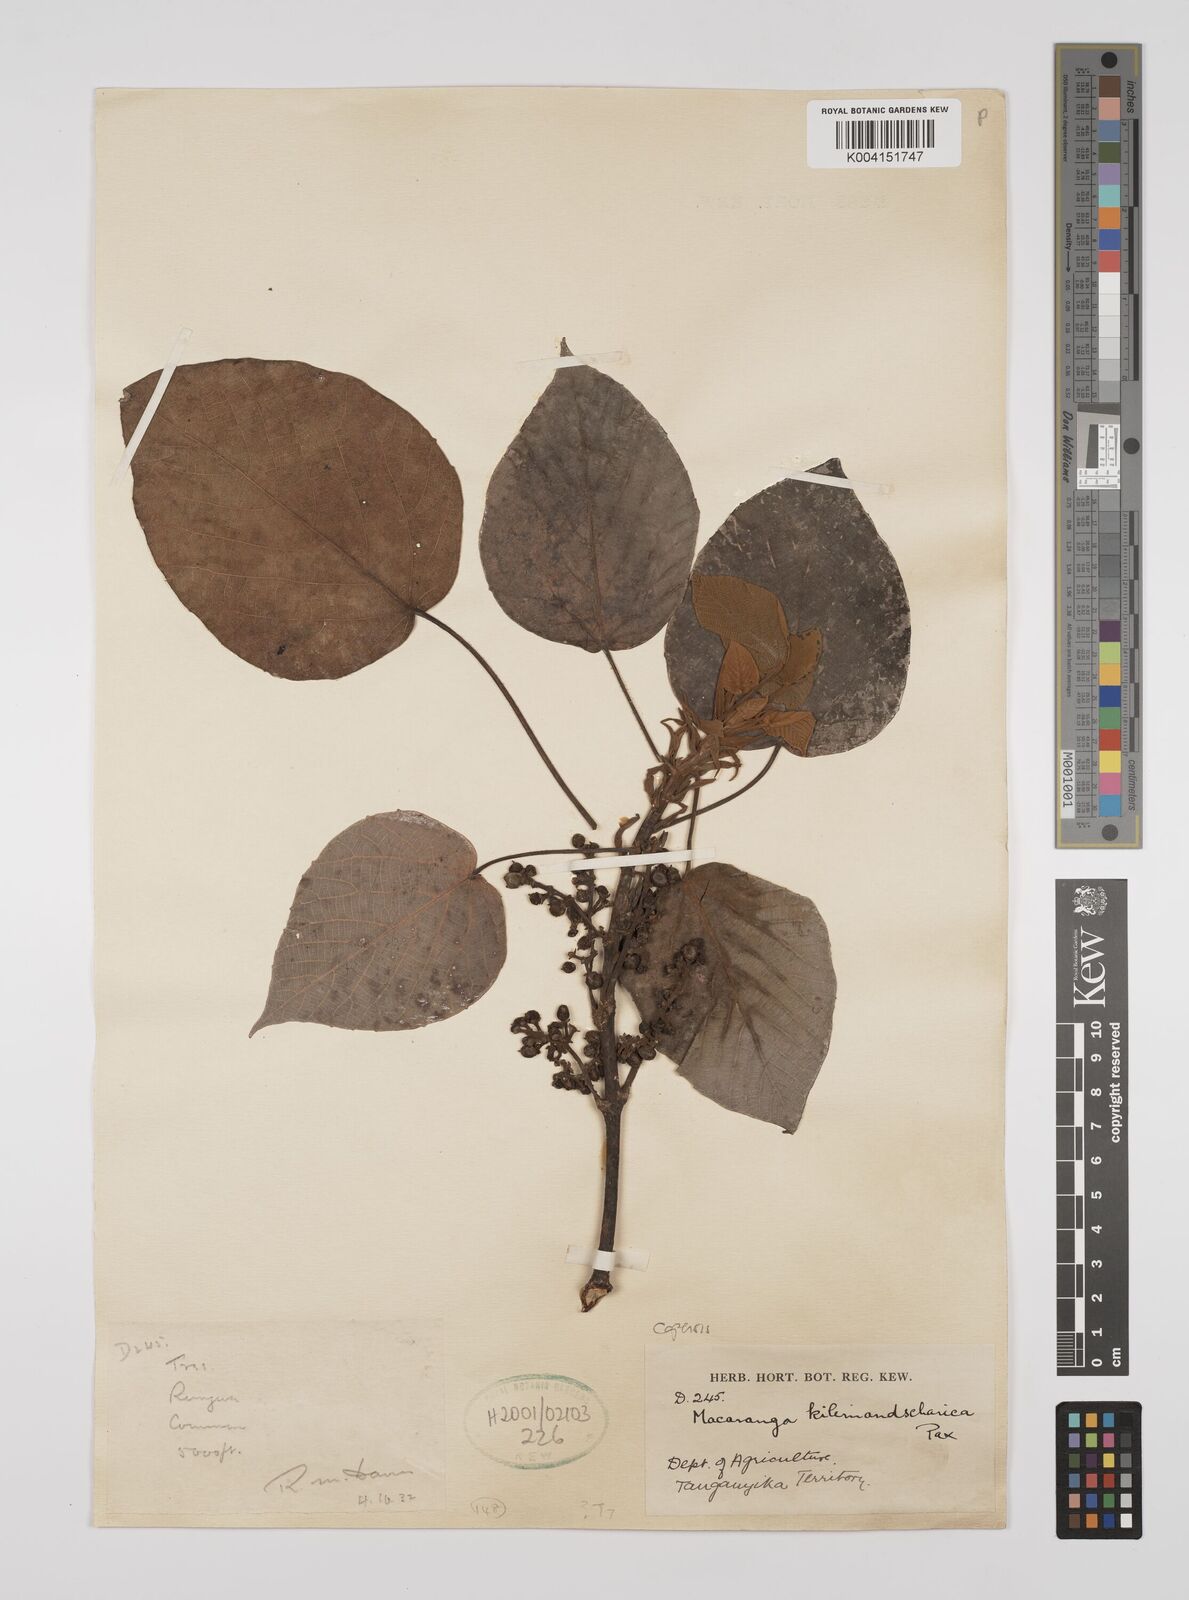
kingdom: Plantae
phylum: Tracheophyta
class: Magnoliopsida
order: Malpighiales
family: Euphorbiaceae
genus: Macaranga
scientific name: Macaranga kilimandscharica
